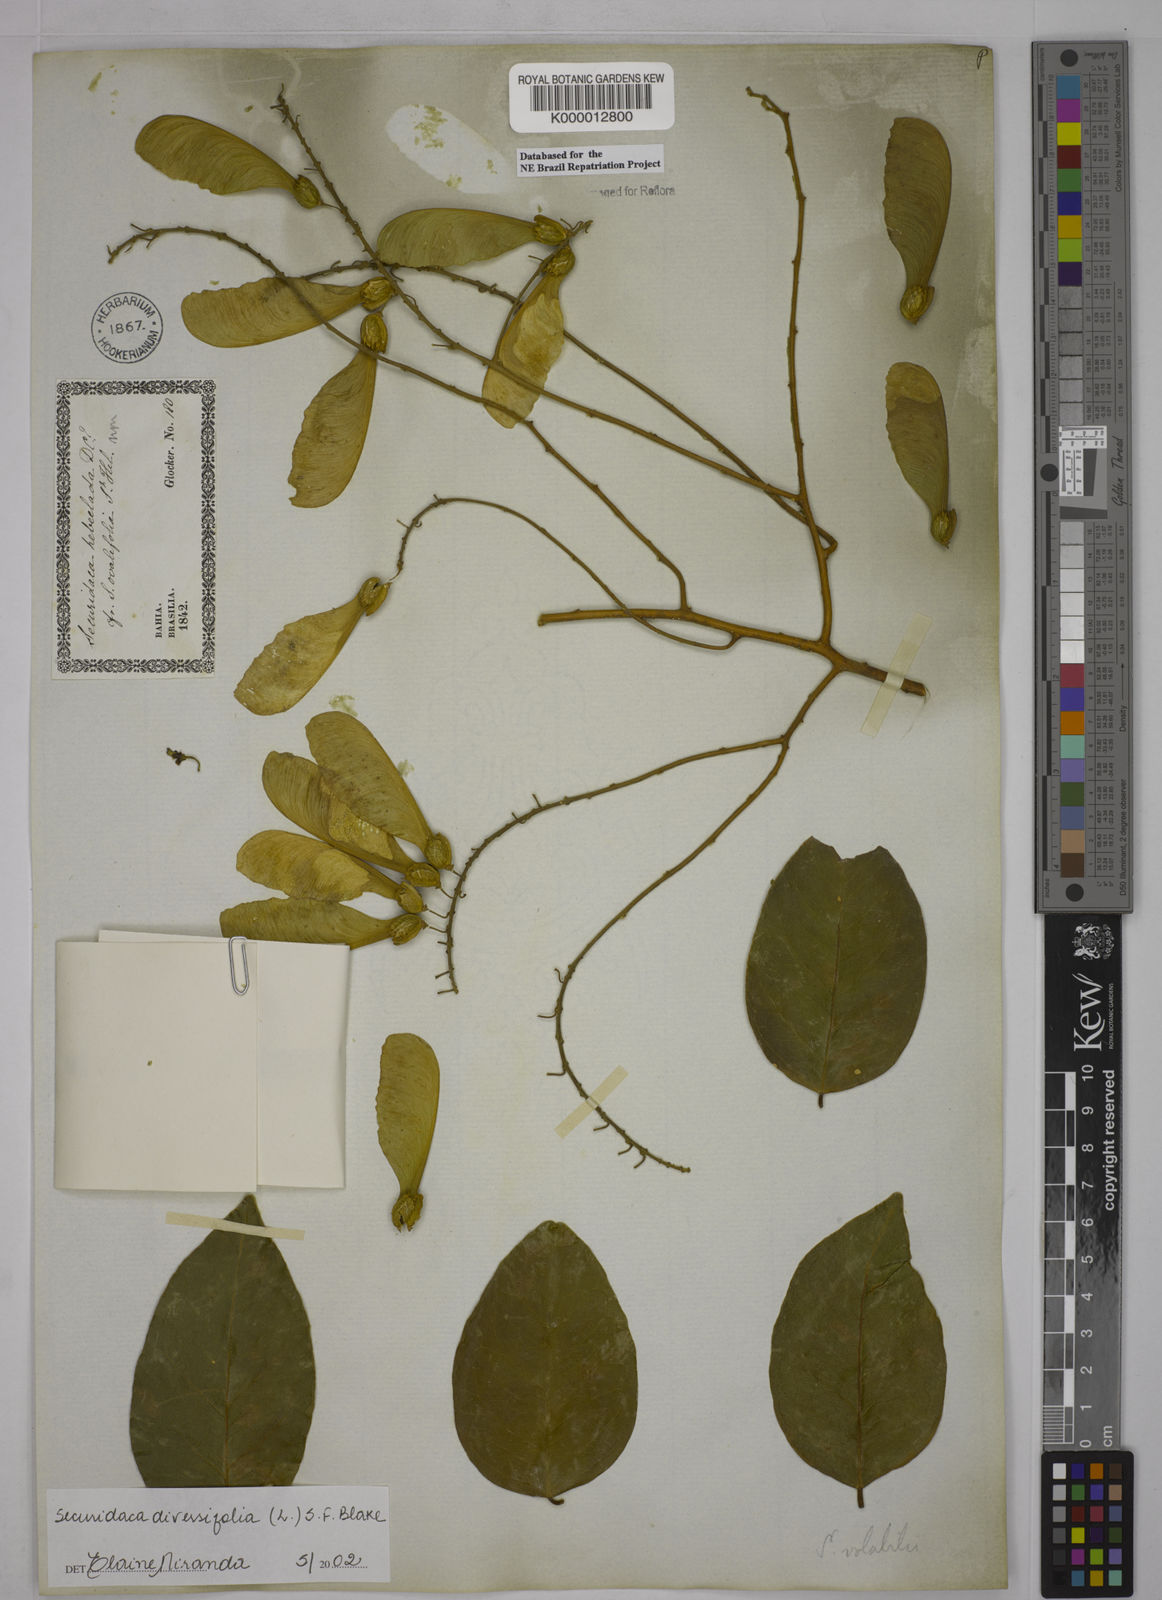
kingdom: Plantae
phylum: Tracheophyta
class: Magnoliopsida
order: Fabales
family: Polygalaceae
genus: Securidaca
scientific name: Securidaca diversifolia
